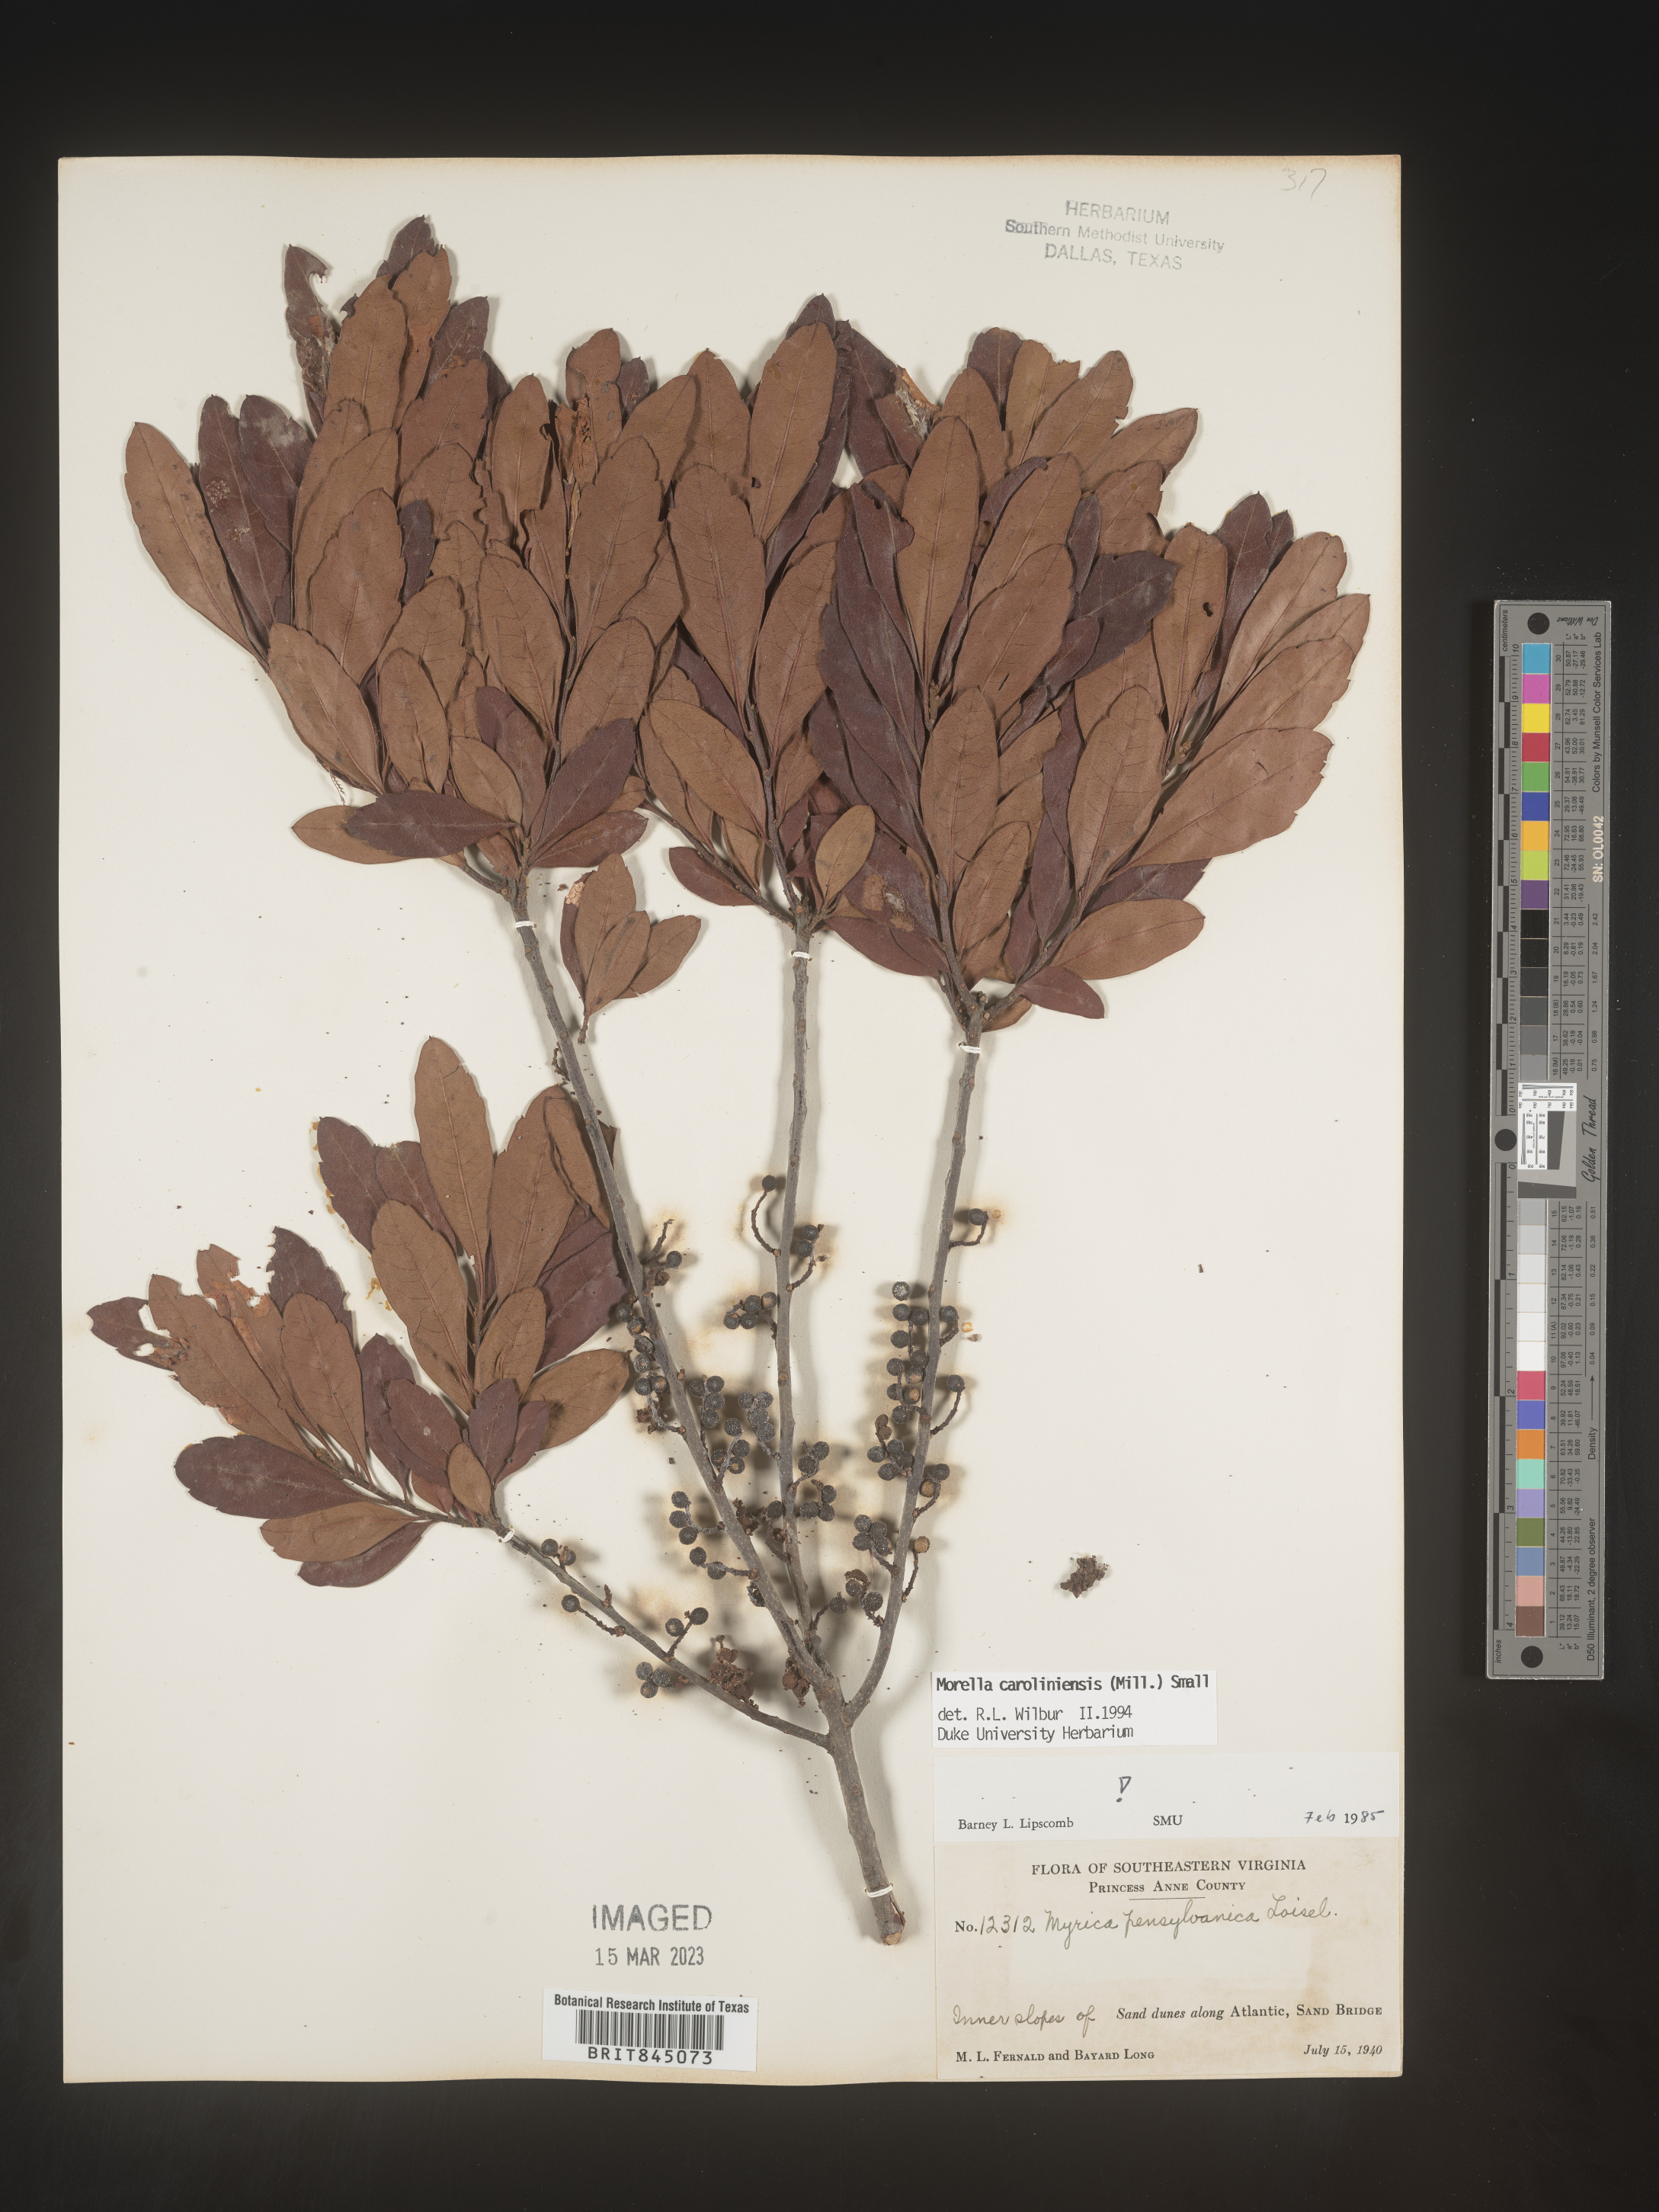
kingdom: Plantae
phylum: Tracheophyta
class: Magnoliopsida
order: Fagales
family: Myricaceae
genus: Morella
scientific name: Morella caroliniensis
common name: Evergreen bayberry
